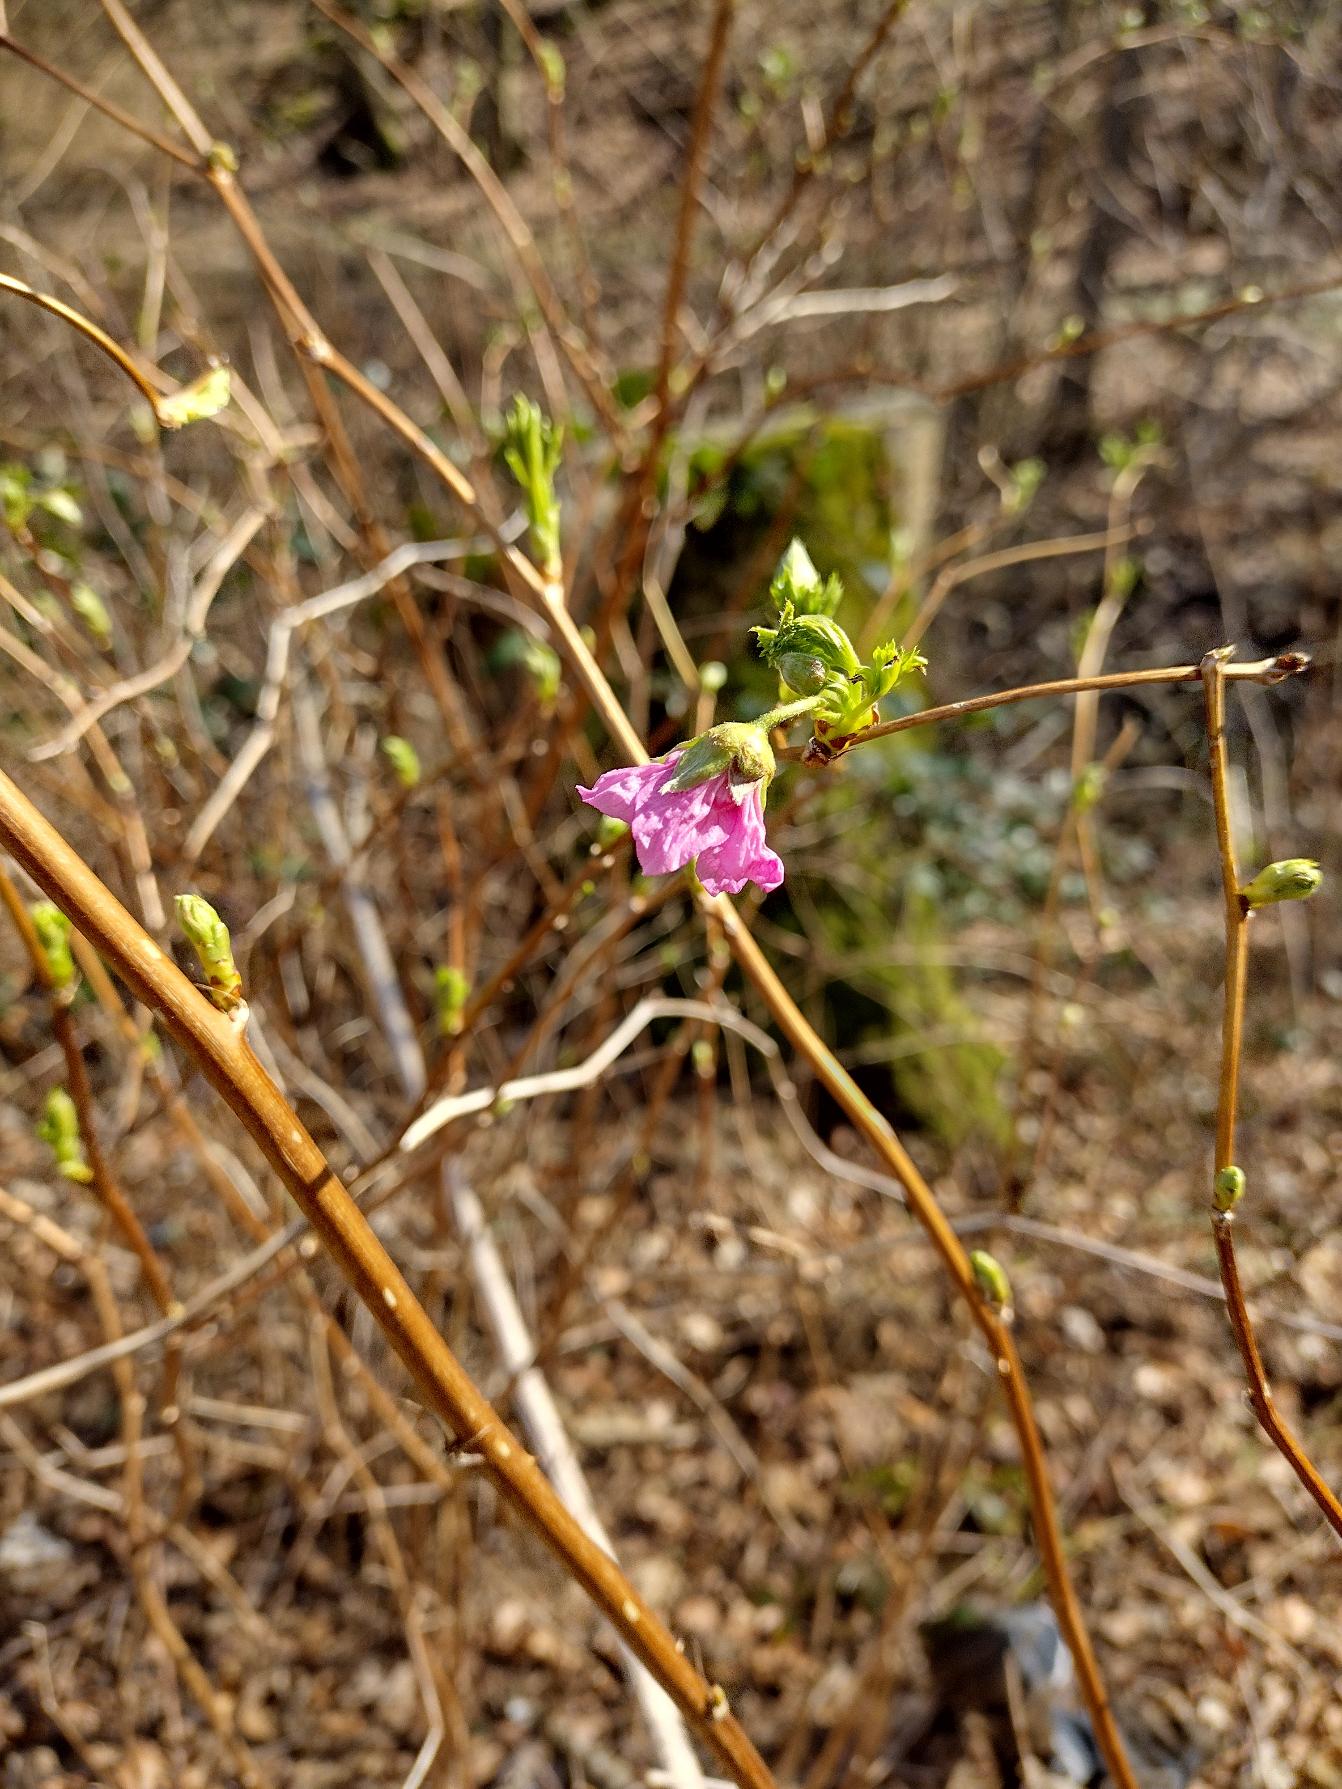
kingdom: Plantae
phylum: Tracheophyta
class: Magnoliopsida
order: Rosales
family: Rosaceae
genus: Rubus
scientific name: Rubus spectabilis
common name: Laksebær
